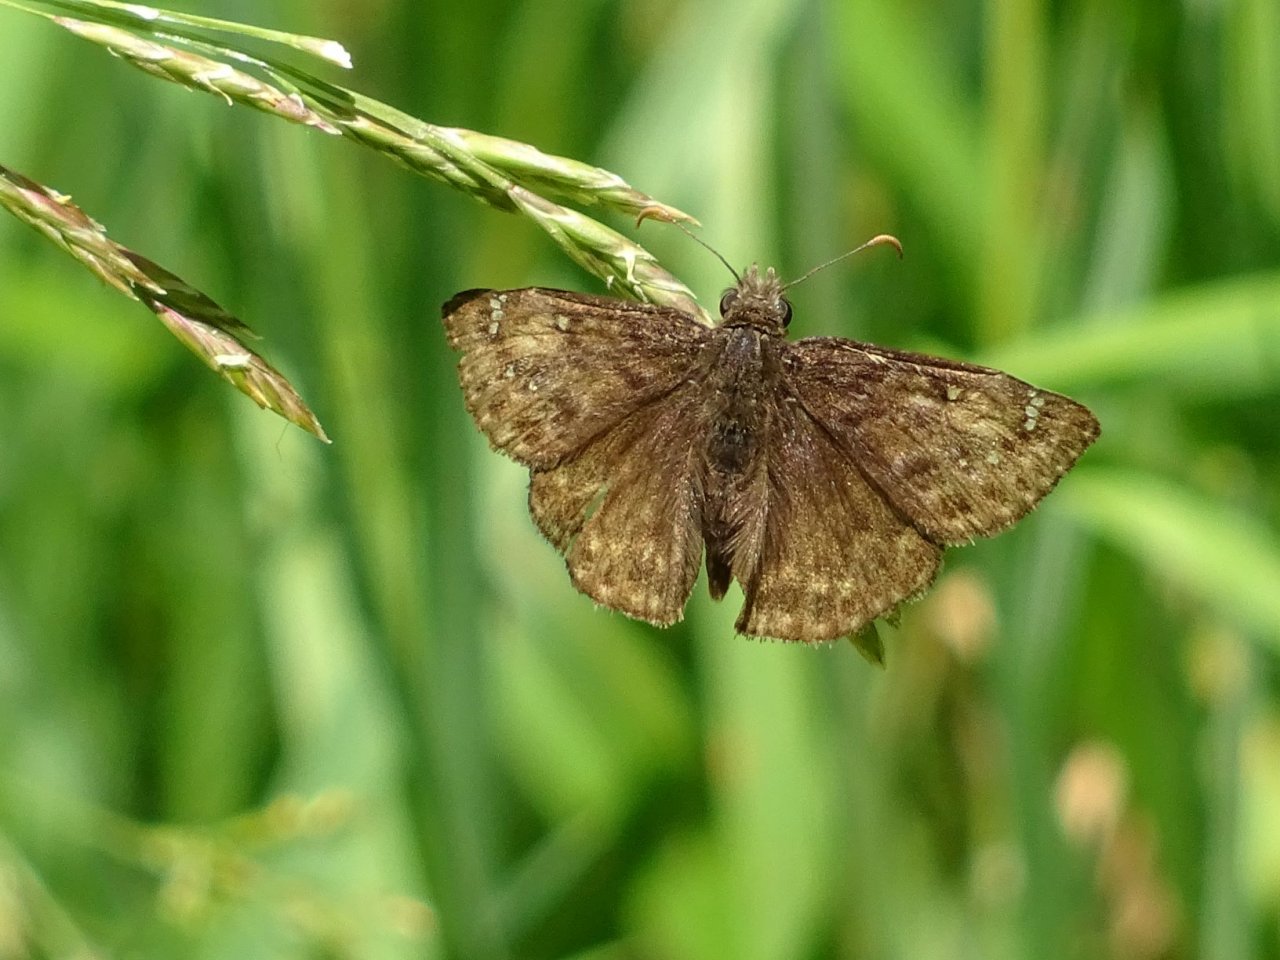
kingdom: Animalia
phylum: Arthropoda
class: Insecta
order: Lepidoptera
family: Hesperiidae
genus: Gesta
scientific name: Gesta
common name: Juvenal's Duskywing
